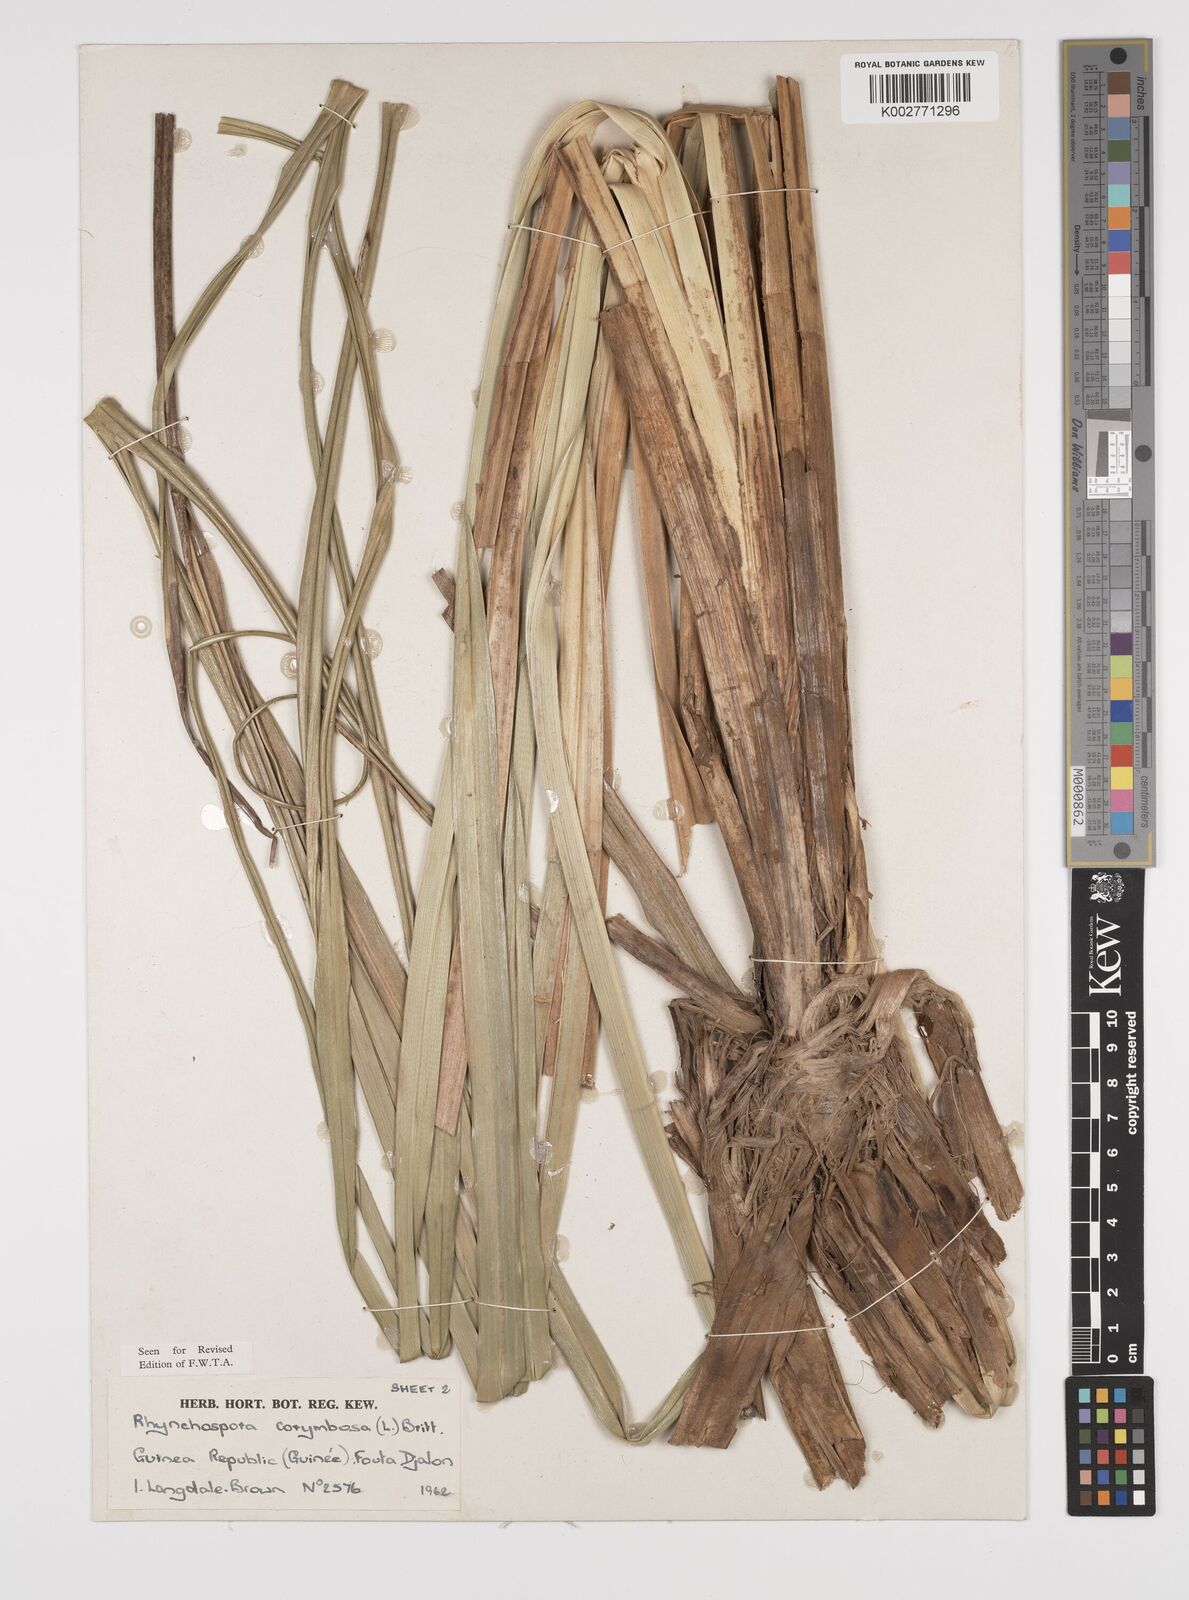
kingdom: Plantae
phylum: Tracheophyta
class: Liliopsida
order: Poales
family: Cyperaceae
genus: Rhynchospora
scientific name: Rhynchospora corymbosa
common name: Golden beak sedge
